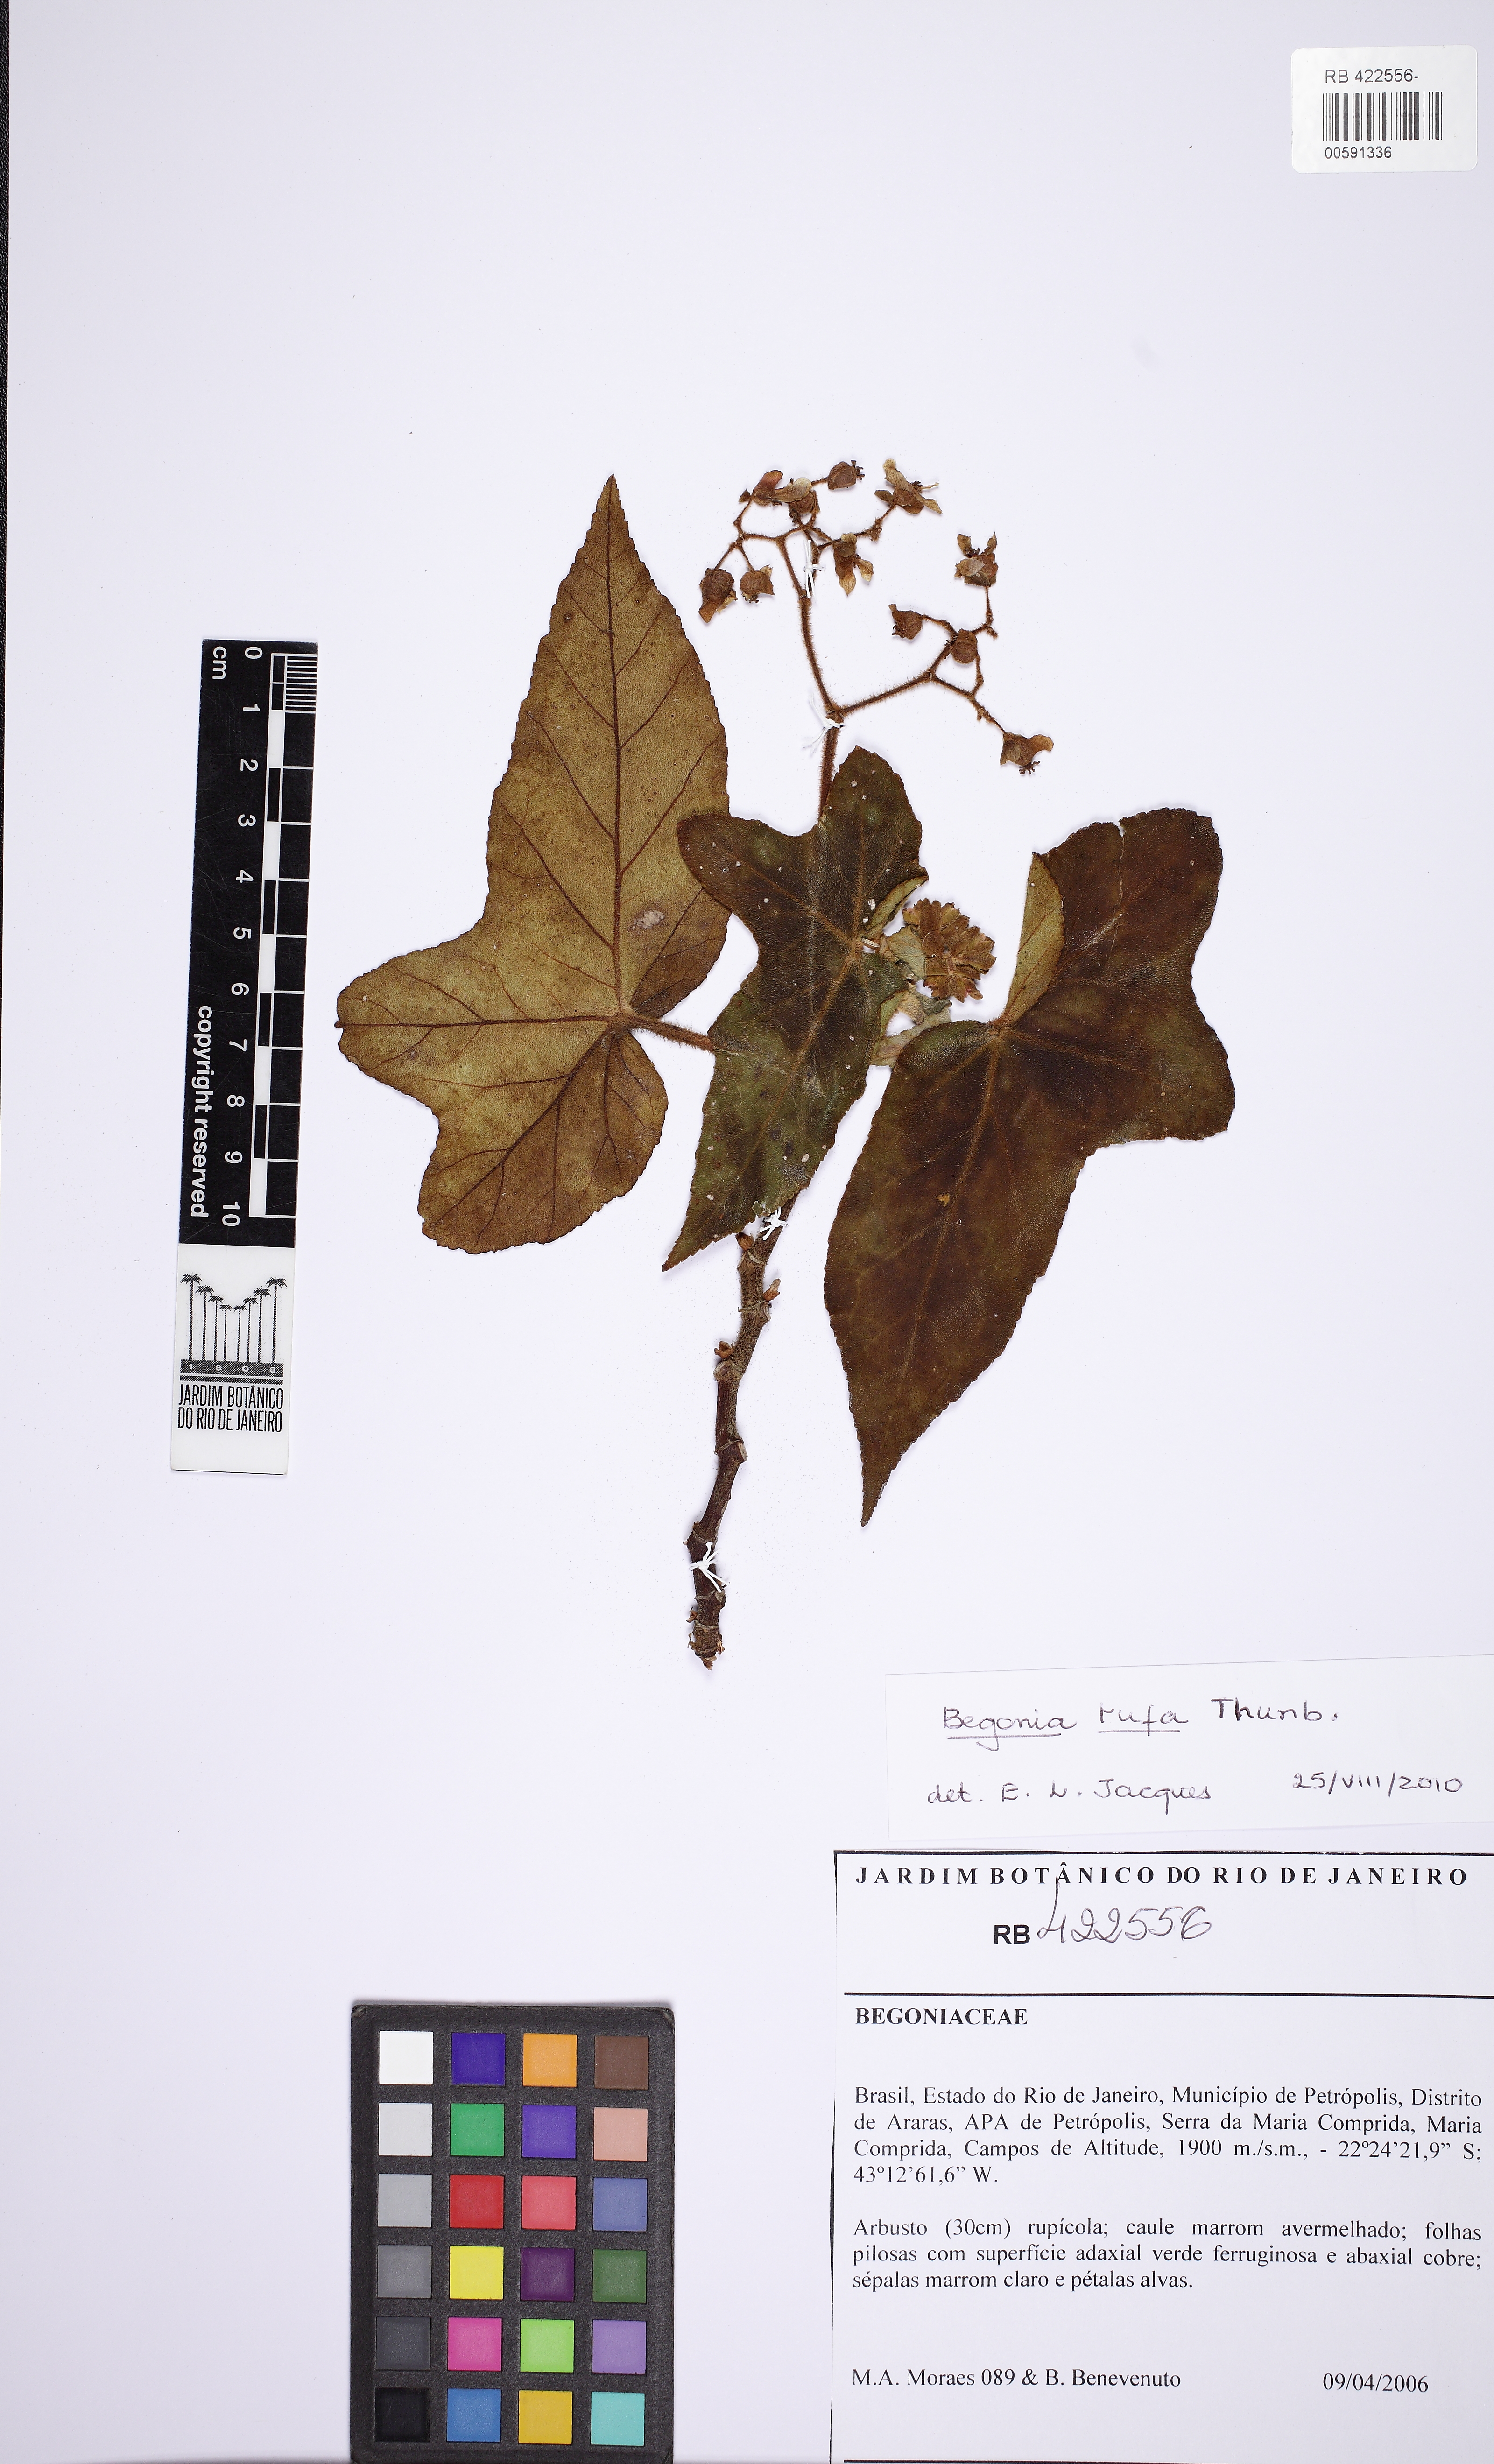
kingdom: Plantae
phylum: Tracheophyta
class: Magnoliopsida
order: Cucurbitales
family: Begoniaceae
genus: Begonia
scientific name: Begonia rufa
